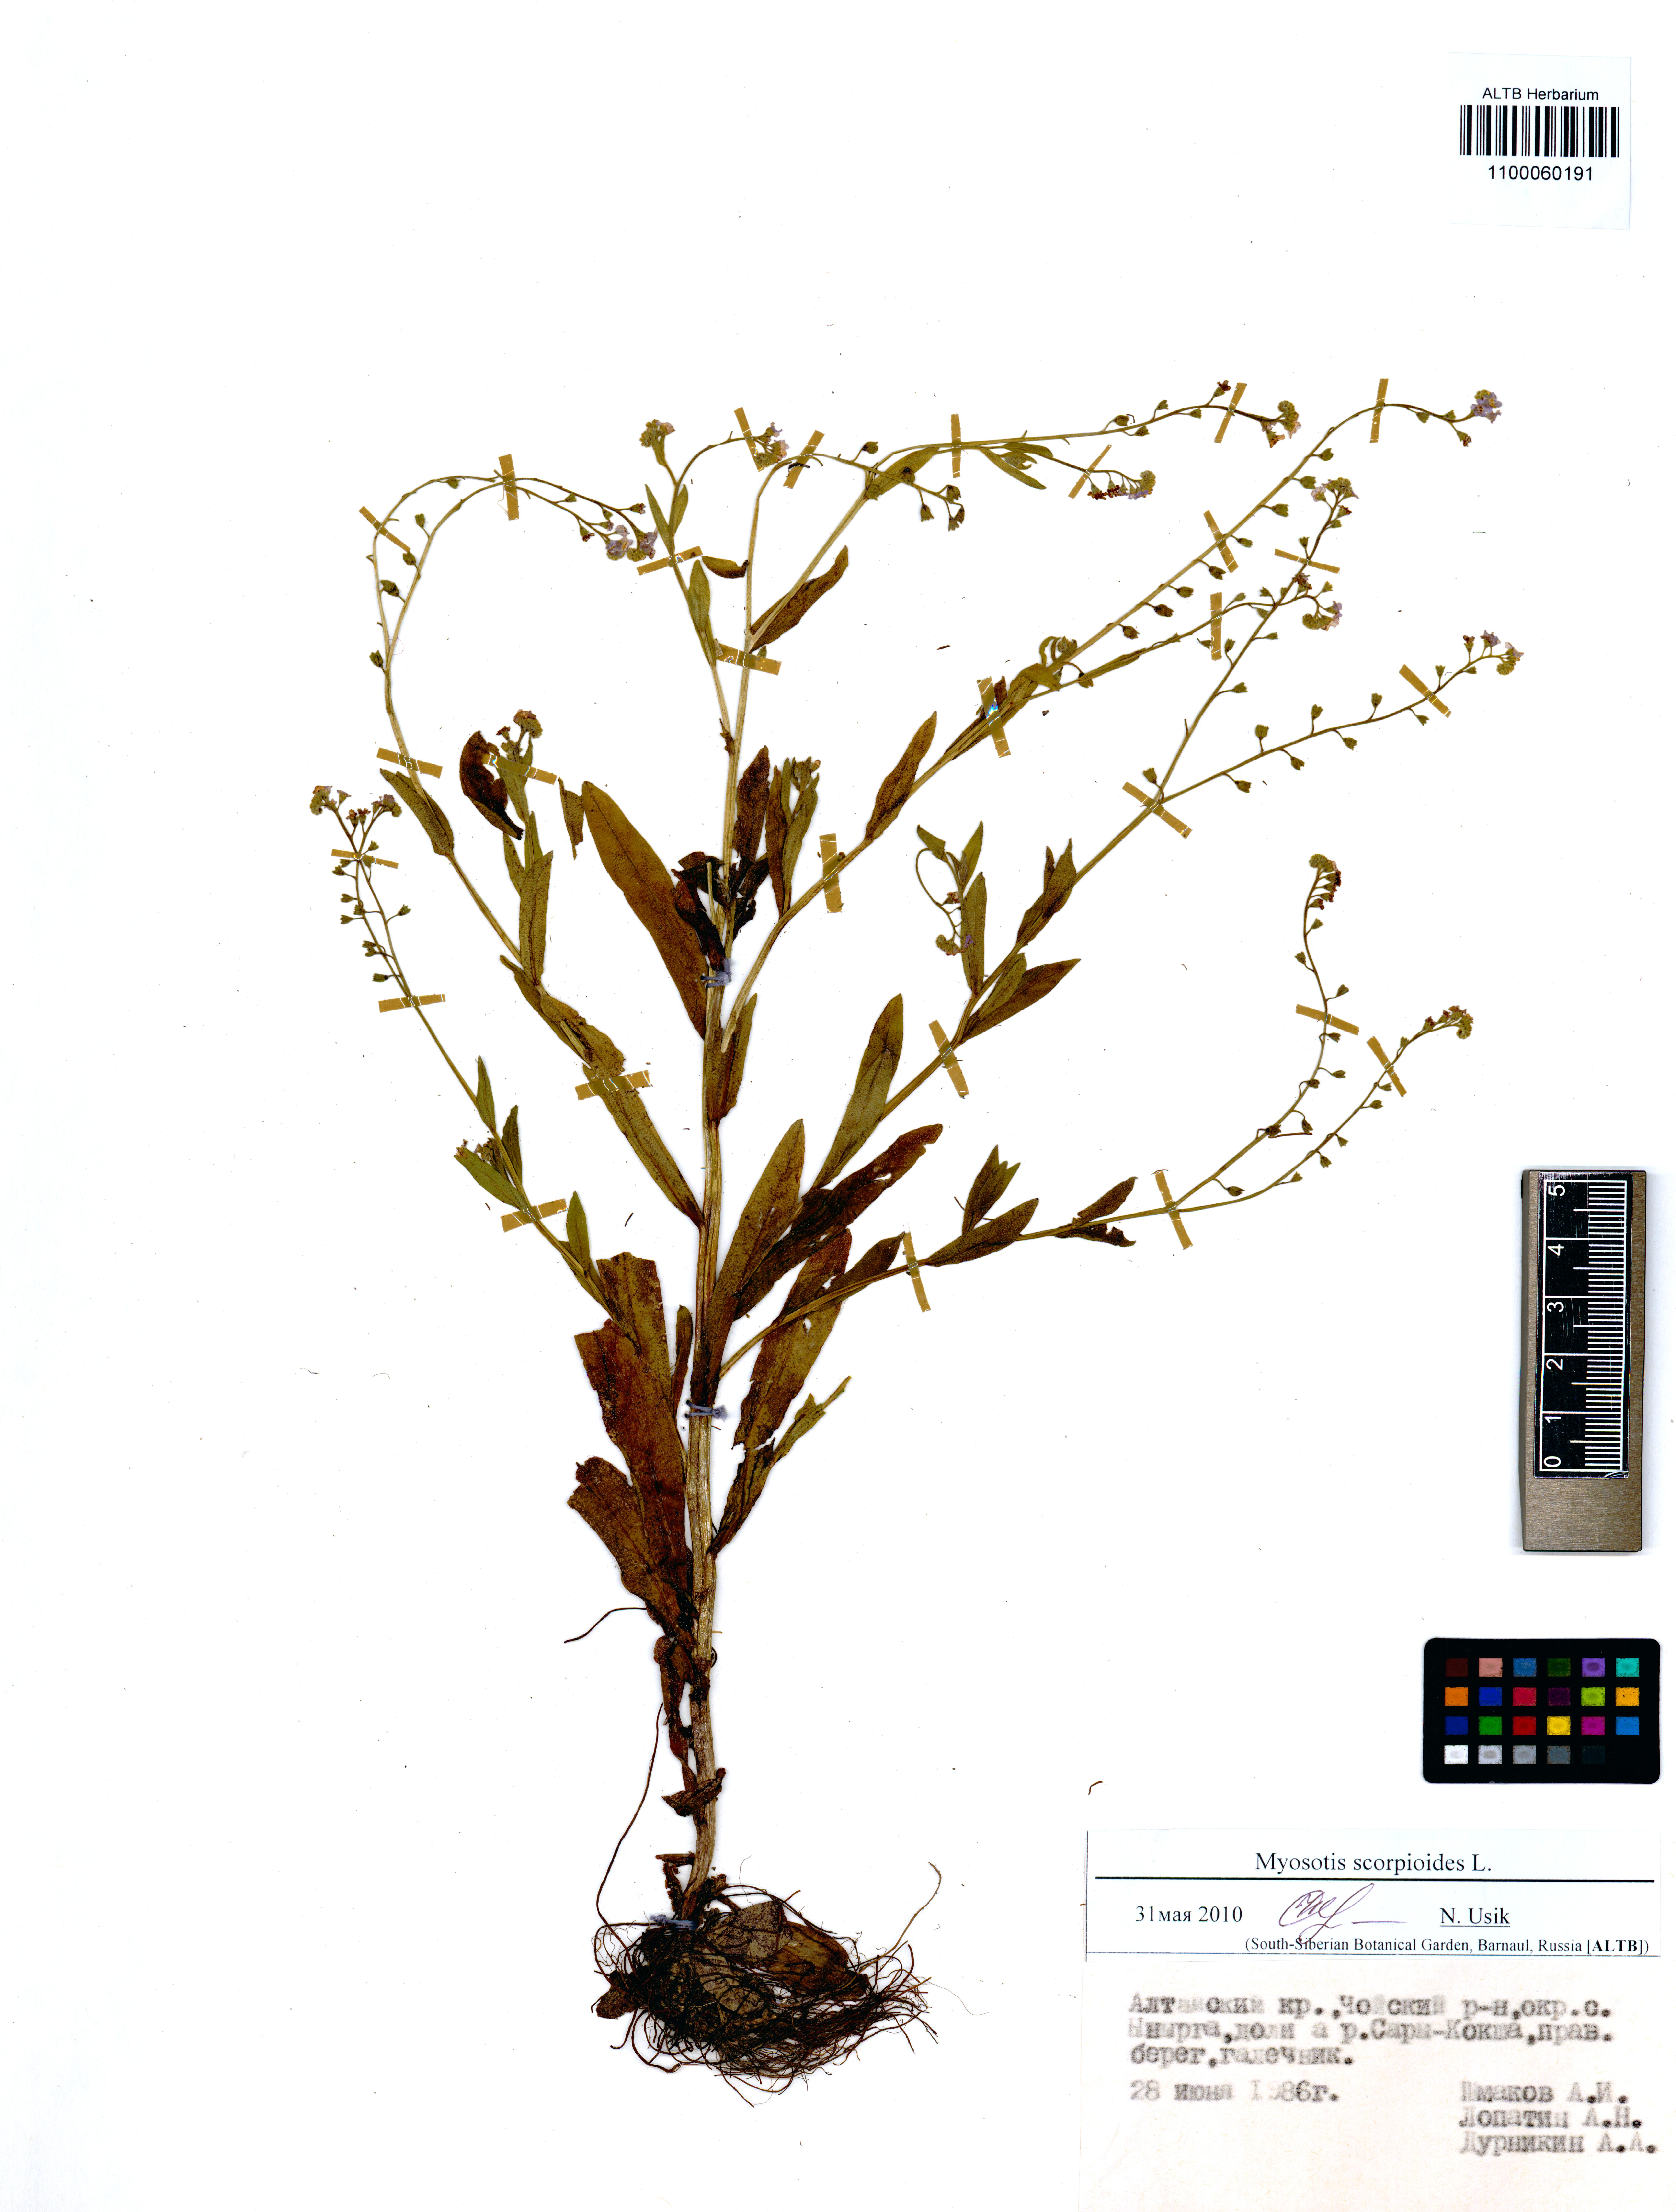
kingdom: Plantae
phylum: Tracheophyta
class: Magnoliopsida
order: Boraginales
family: Boraginaceae
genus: Myosotis
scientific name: Myosotis scorpioides
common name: Water forget-me-not
